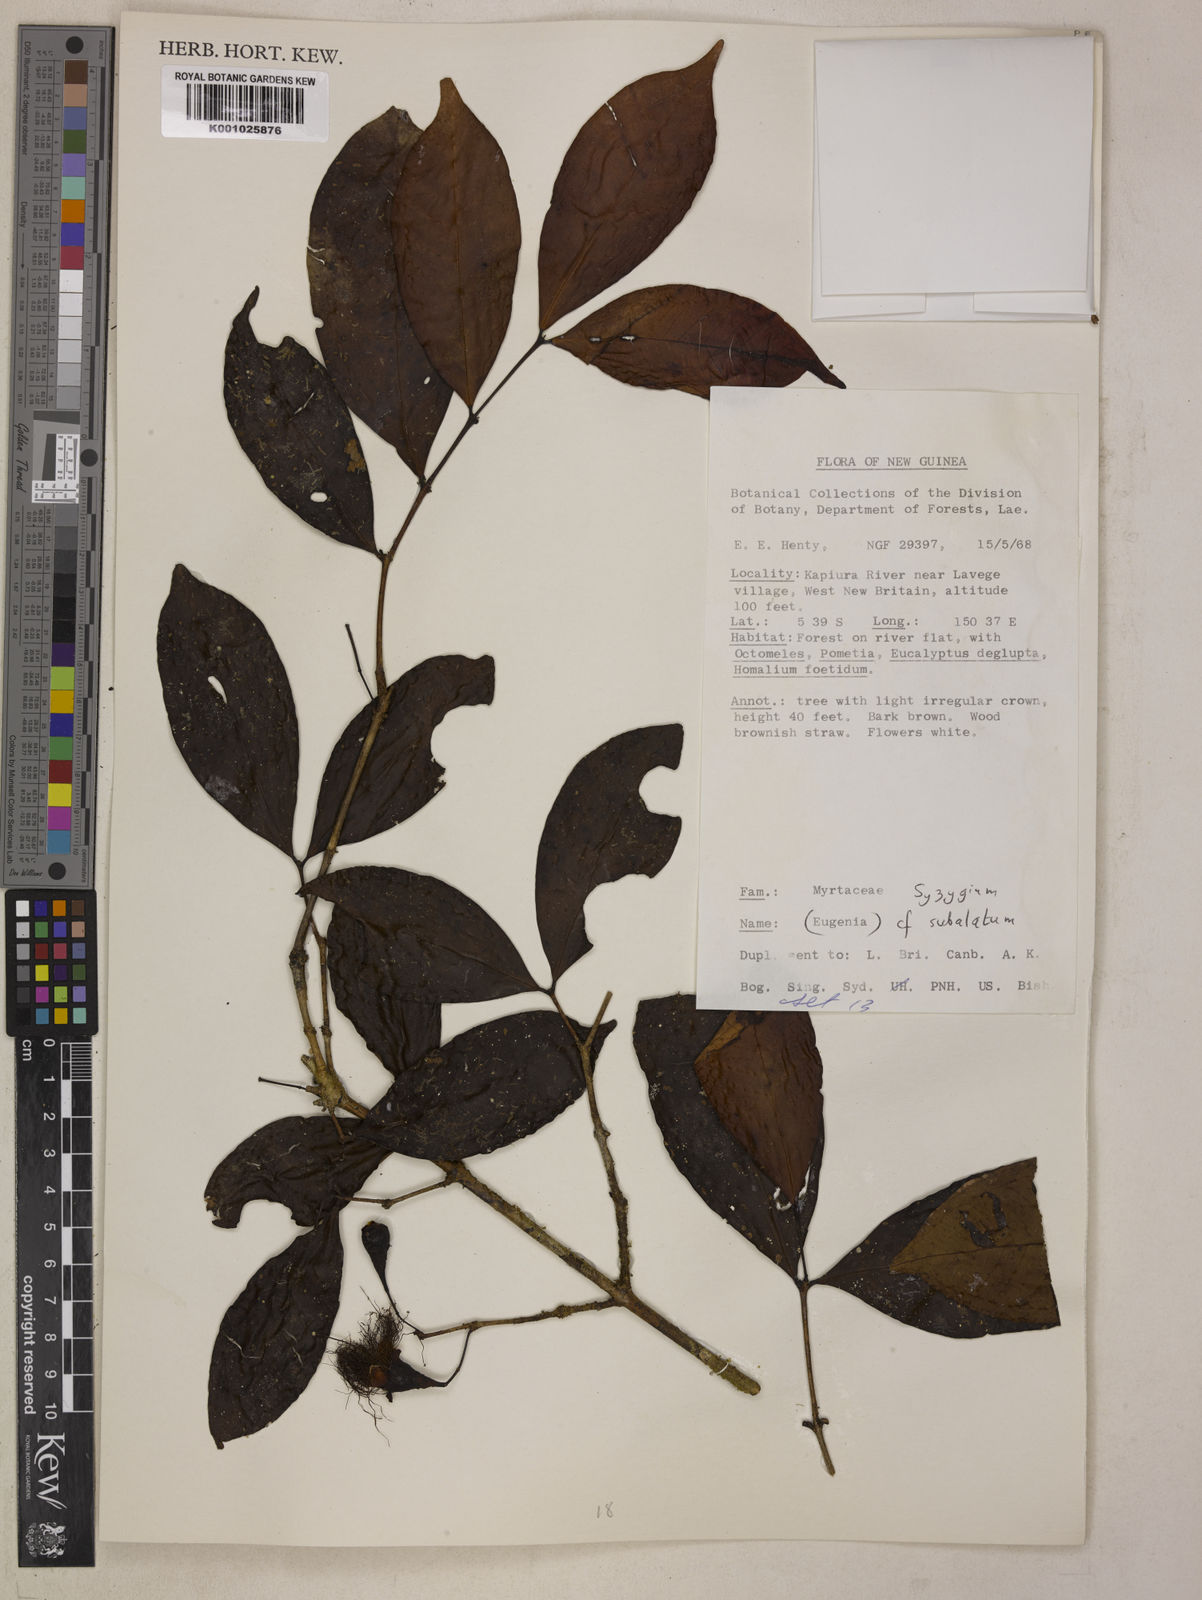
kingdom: Plantae
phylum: Tracheophyta
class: Magnoliopsida
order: Myrtales
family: Myrtaceae
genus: Syzygium
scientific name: Syzygium subalatum
